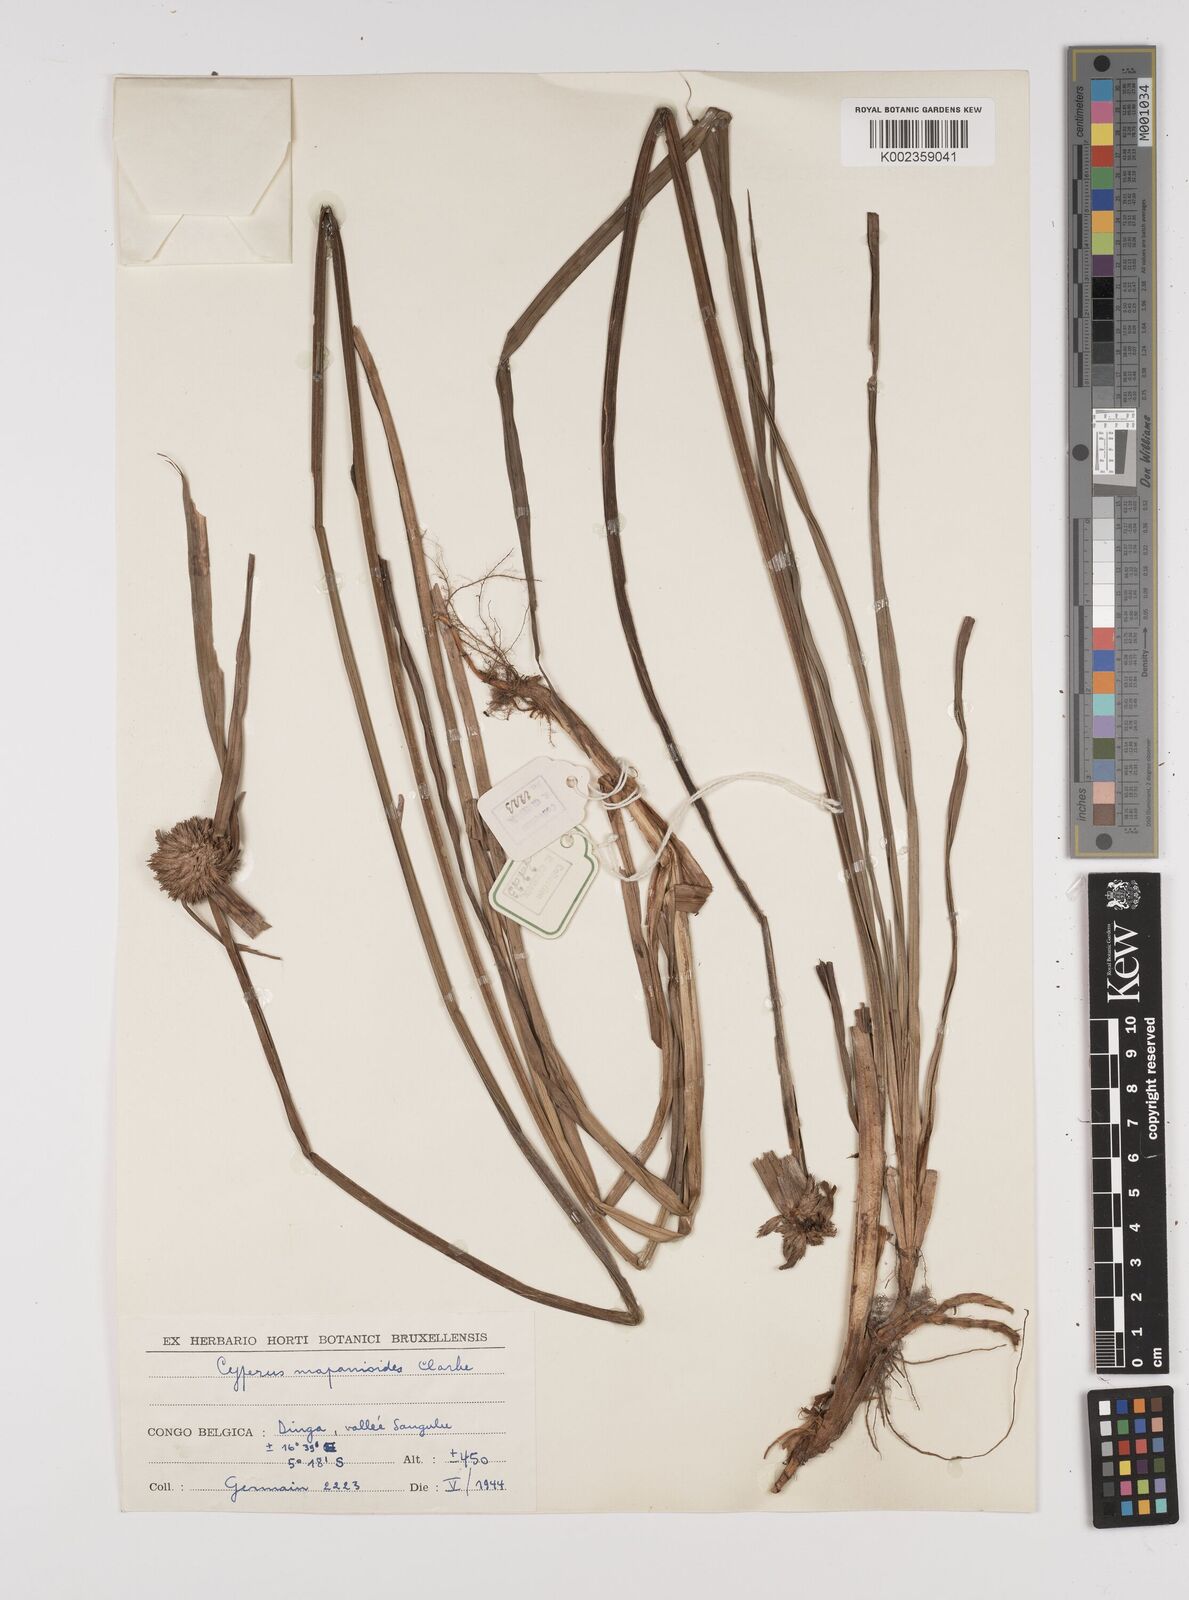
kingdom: Plantae
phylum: Tracheophyta
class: Liliopsida
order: Poales
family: Cyperaceae
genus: Cyperus
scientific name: Cyperus mapanioides
